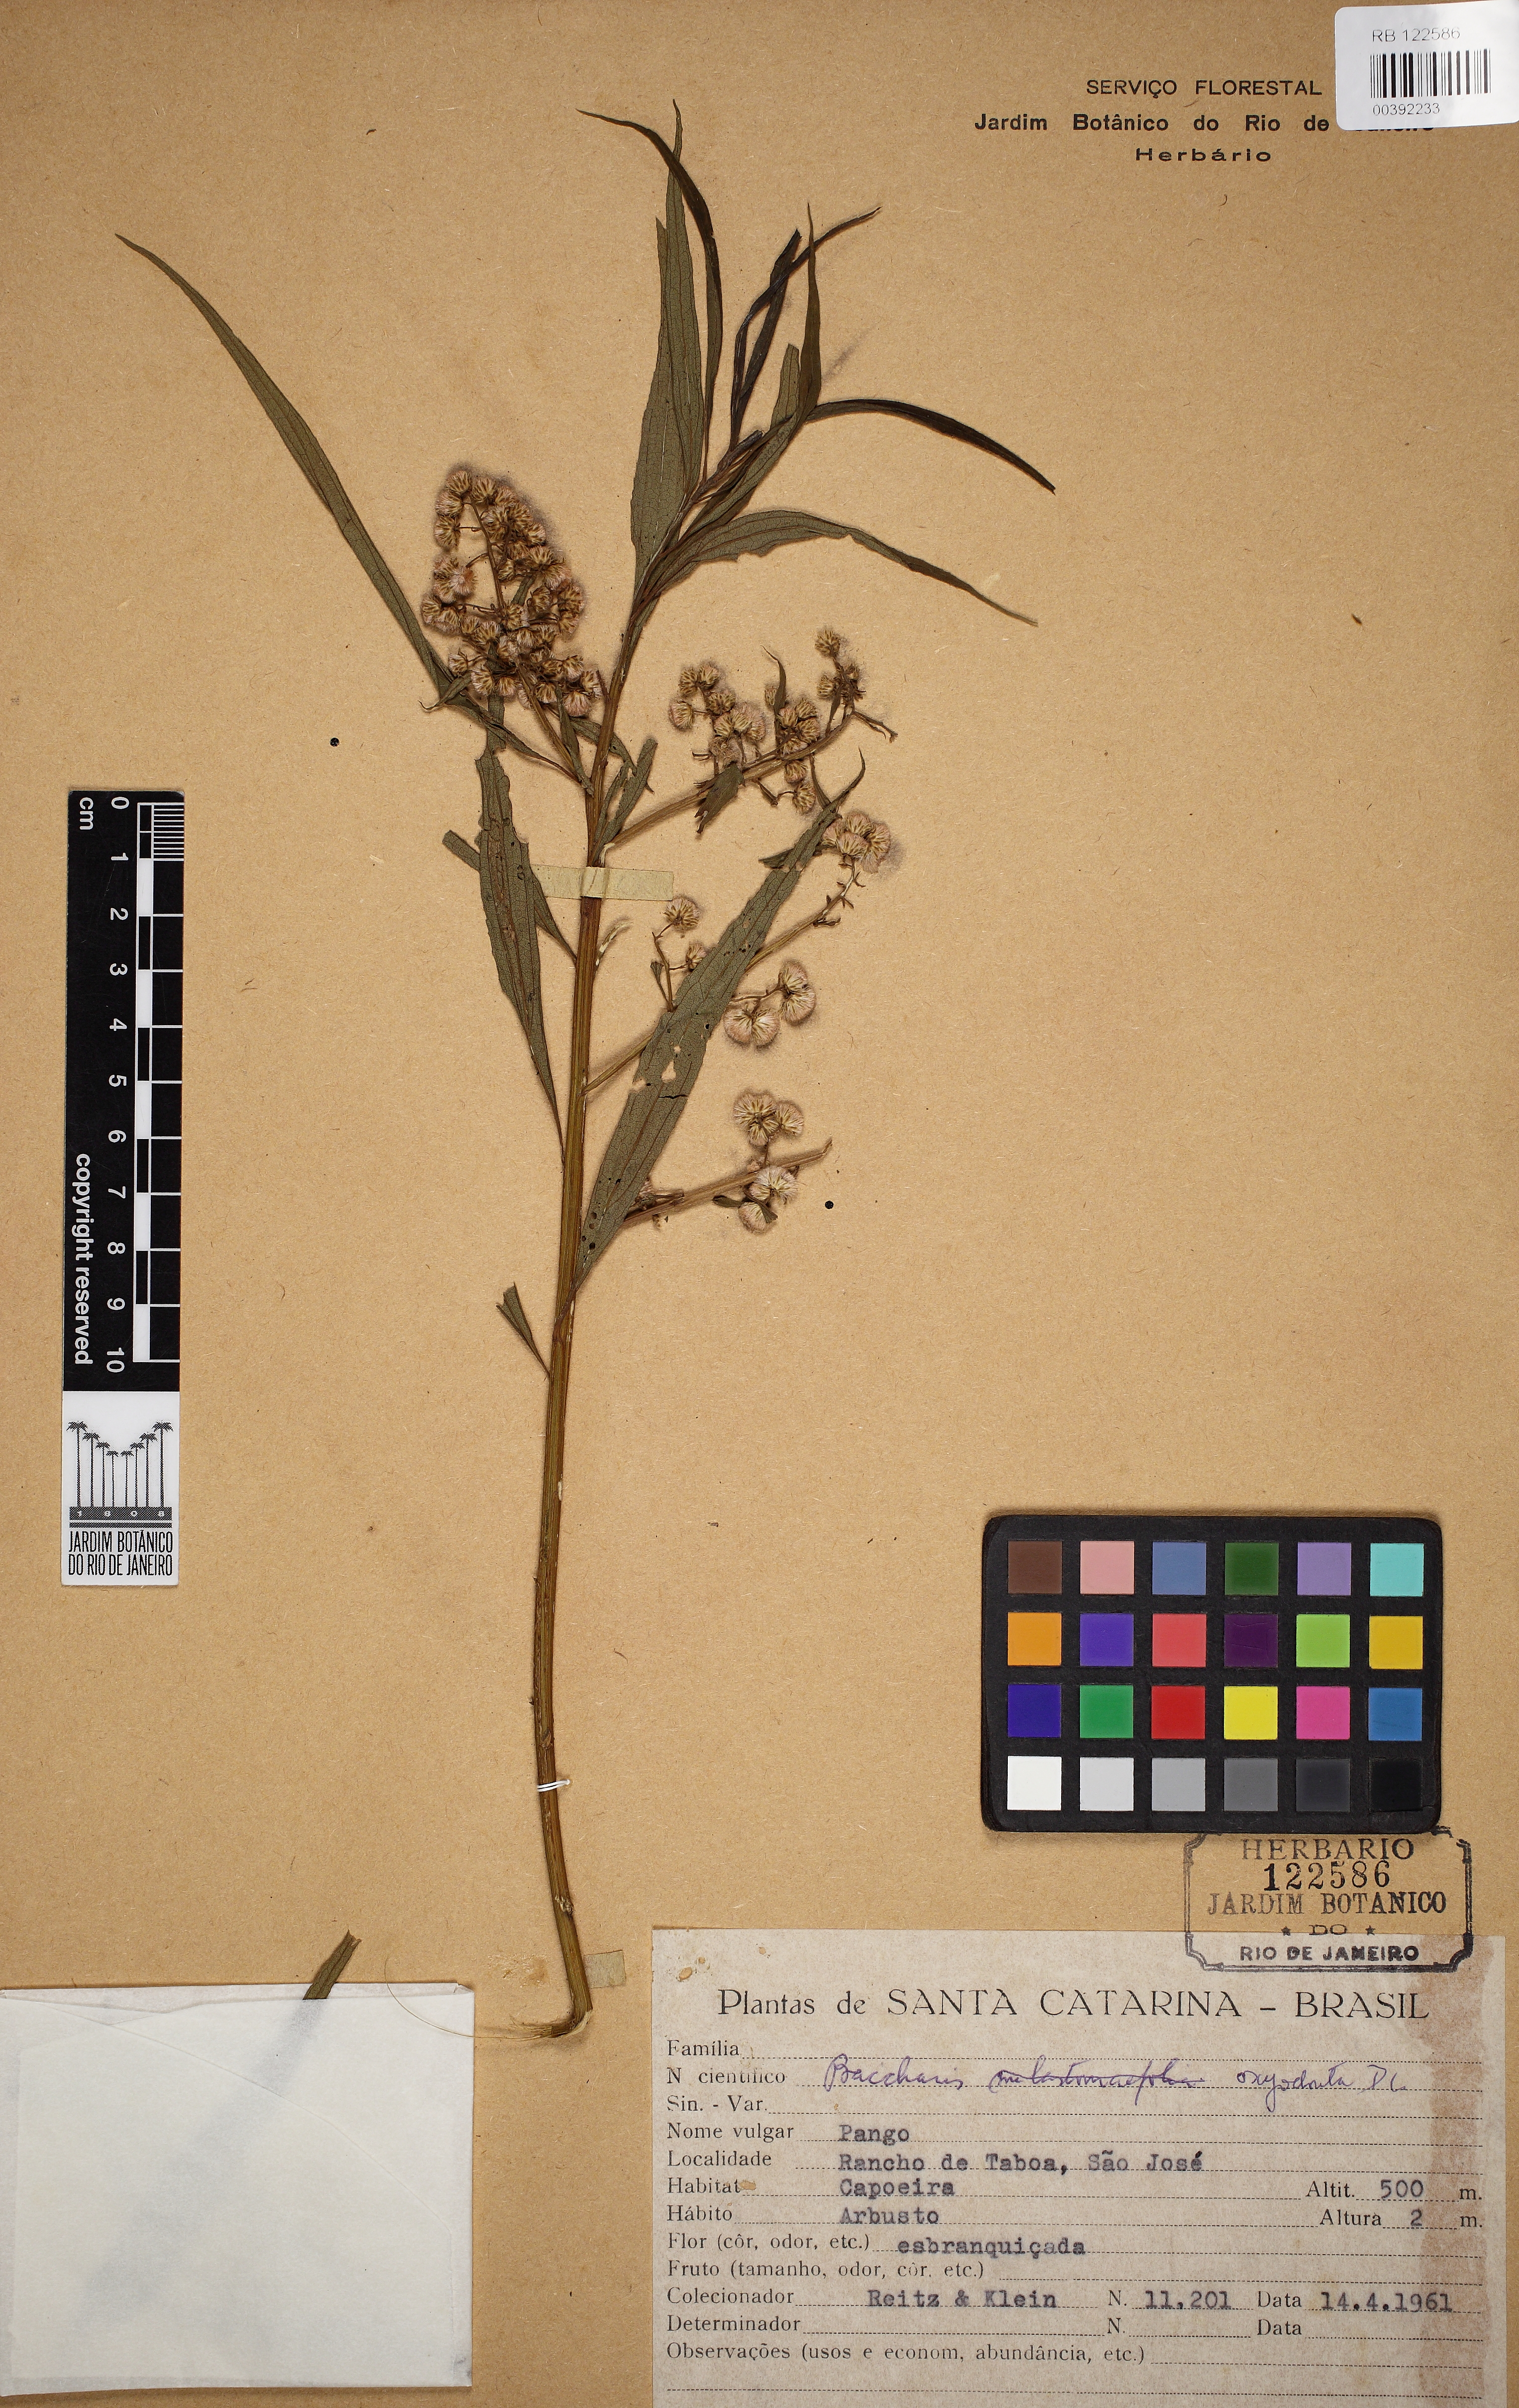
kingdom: Plantae
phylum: Tracheophyta
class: Magnoliopsida
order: Asterales
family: Asteraceae
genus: Baccharis
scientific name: Baccharis oxyodonta
